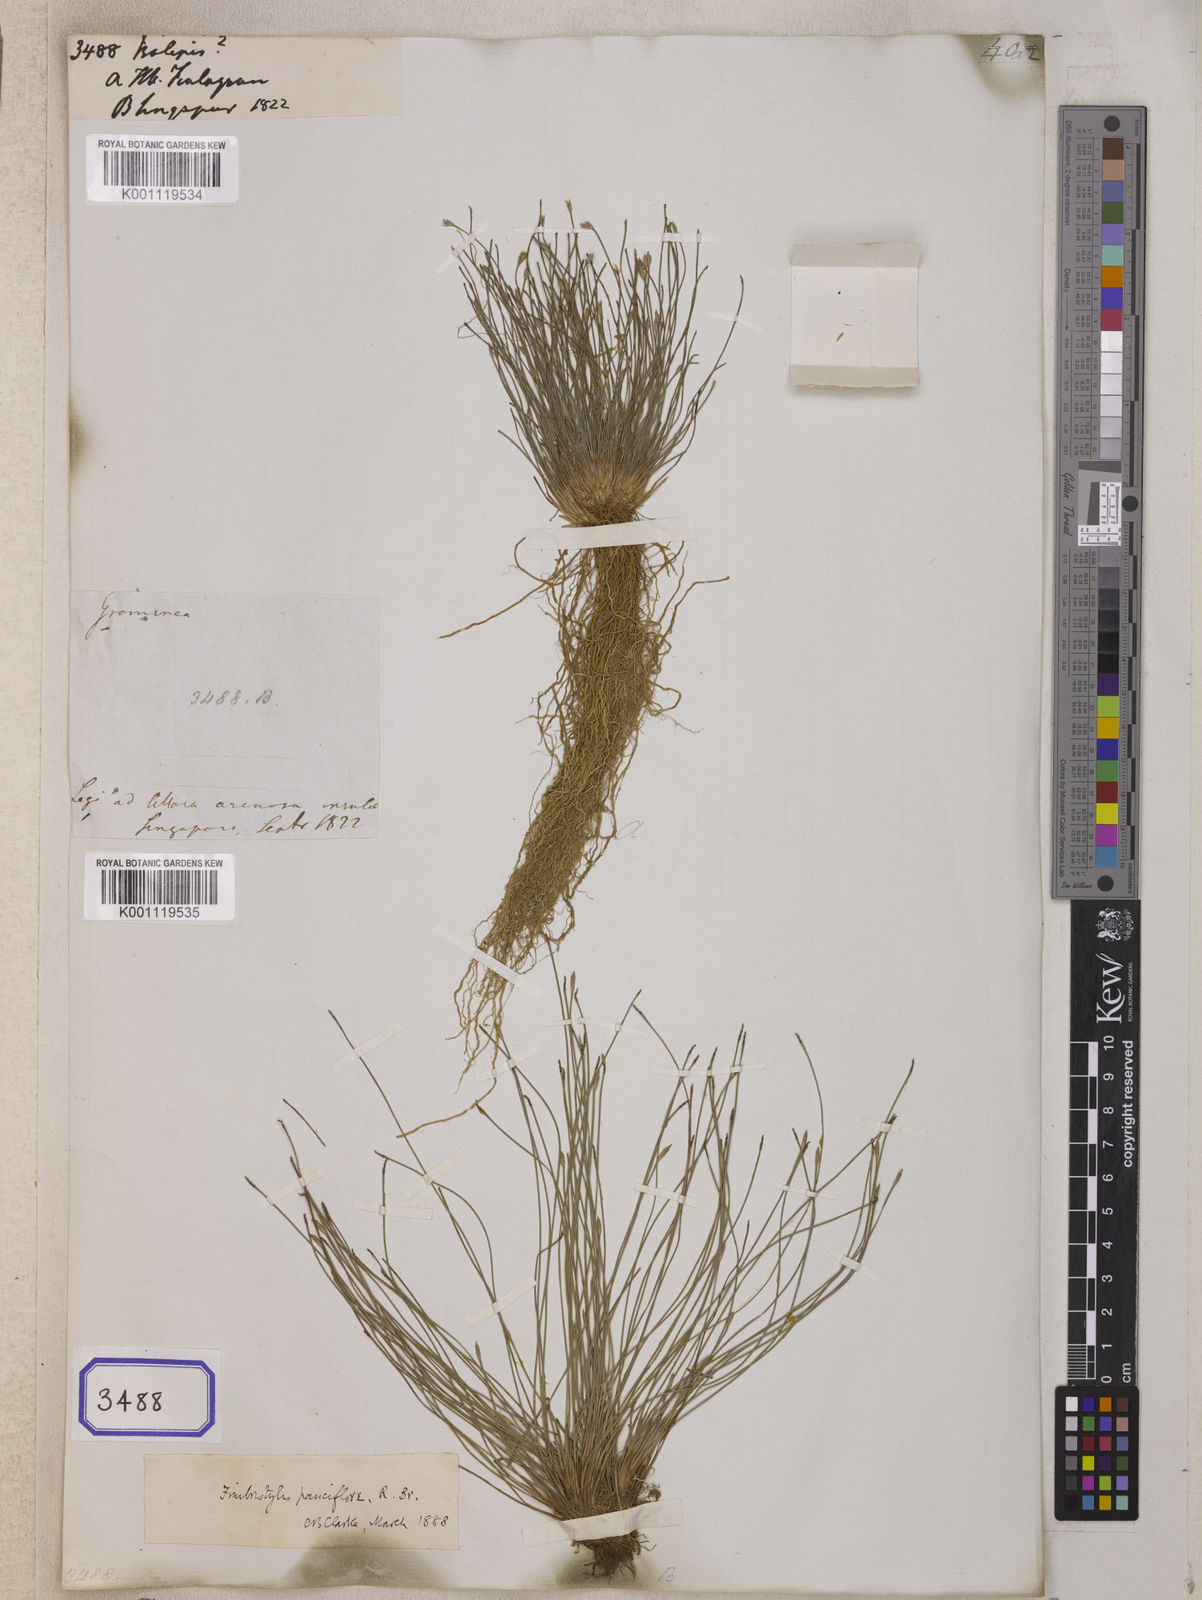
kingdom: Plantae
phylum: Tracheophyta
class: Liliopsida
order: Poales
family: Cyperaceae
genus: Isolepis
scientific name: Isolepis
